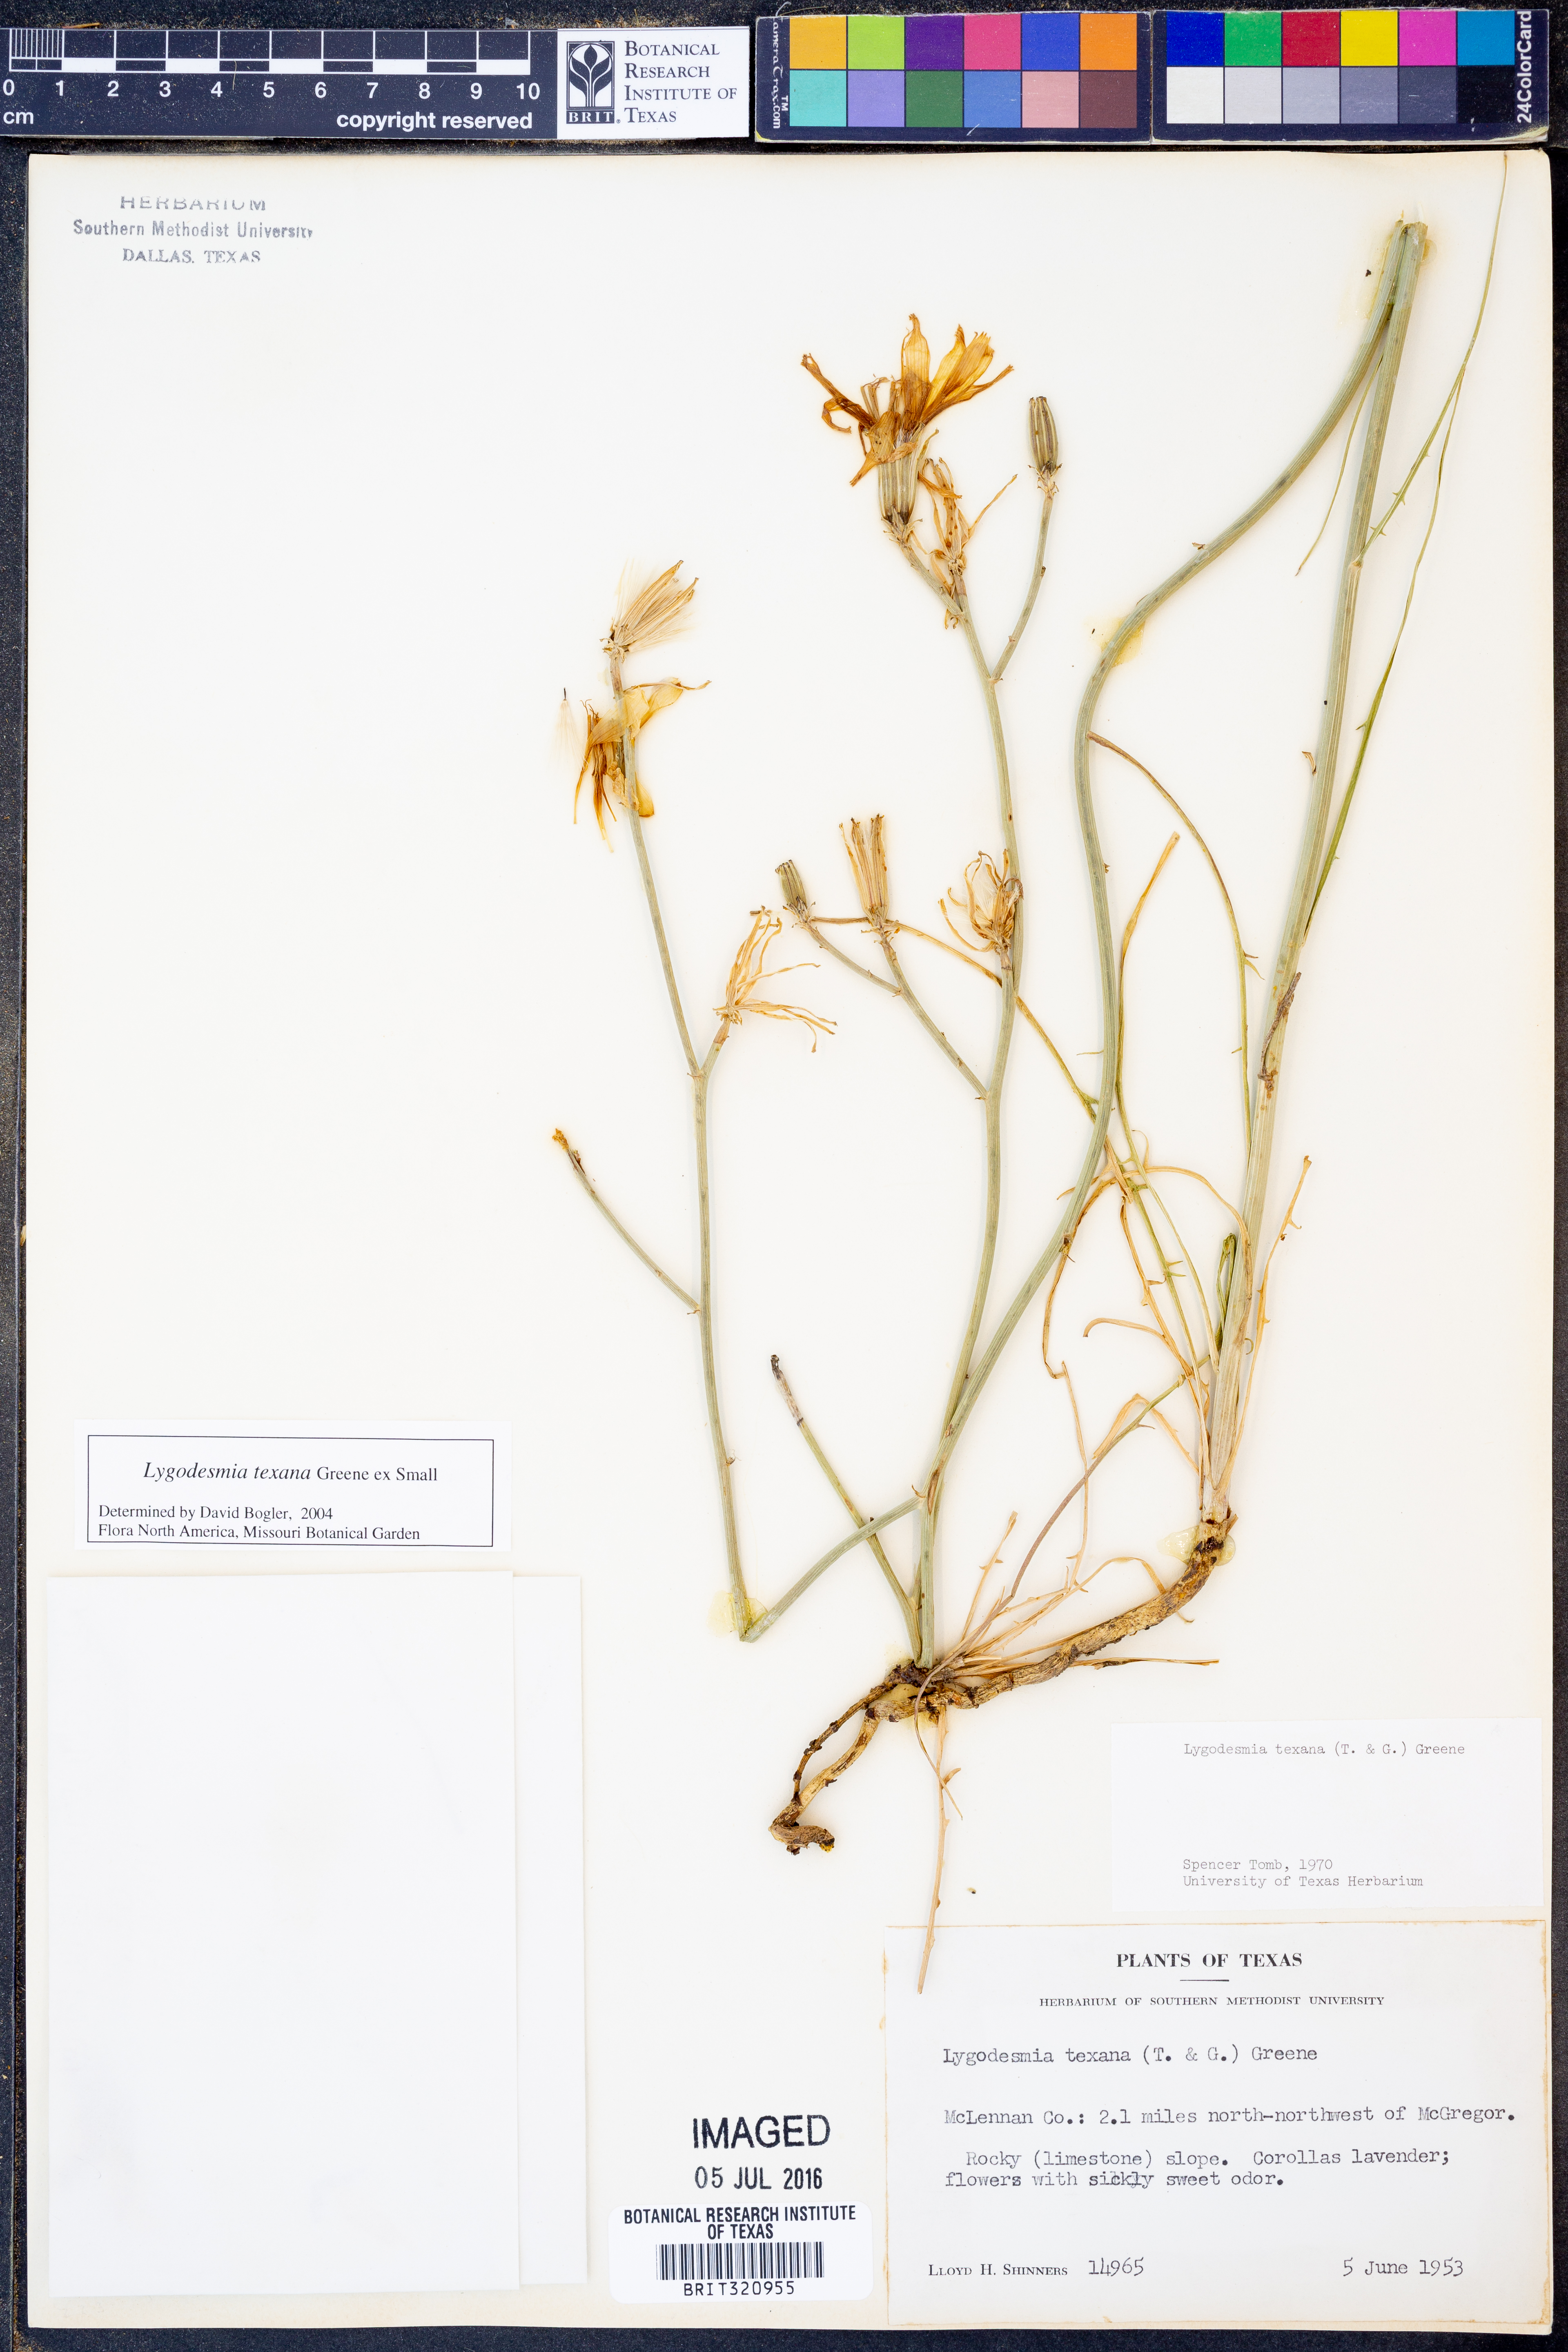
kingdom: Plantae
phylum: Tracheophyta
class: Magnoliopsida
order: Asterales
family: Asteraceae
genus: Lygodesmia
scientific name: Lygodesmia texana
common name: Texas skeleton-plant
